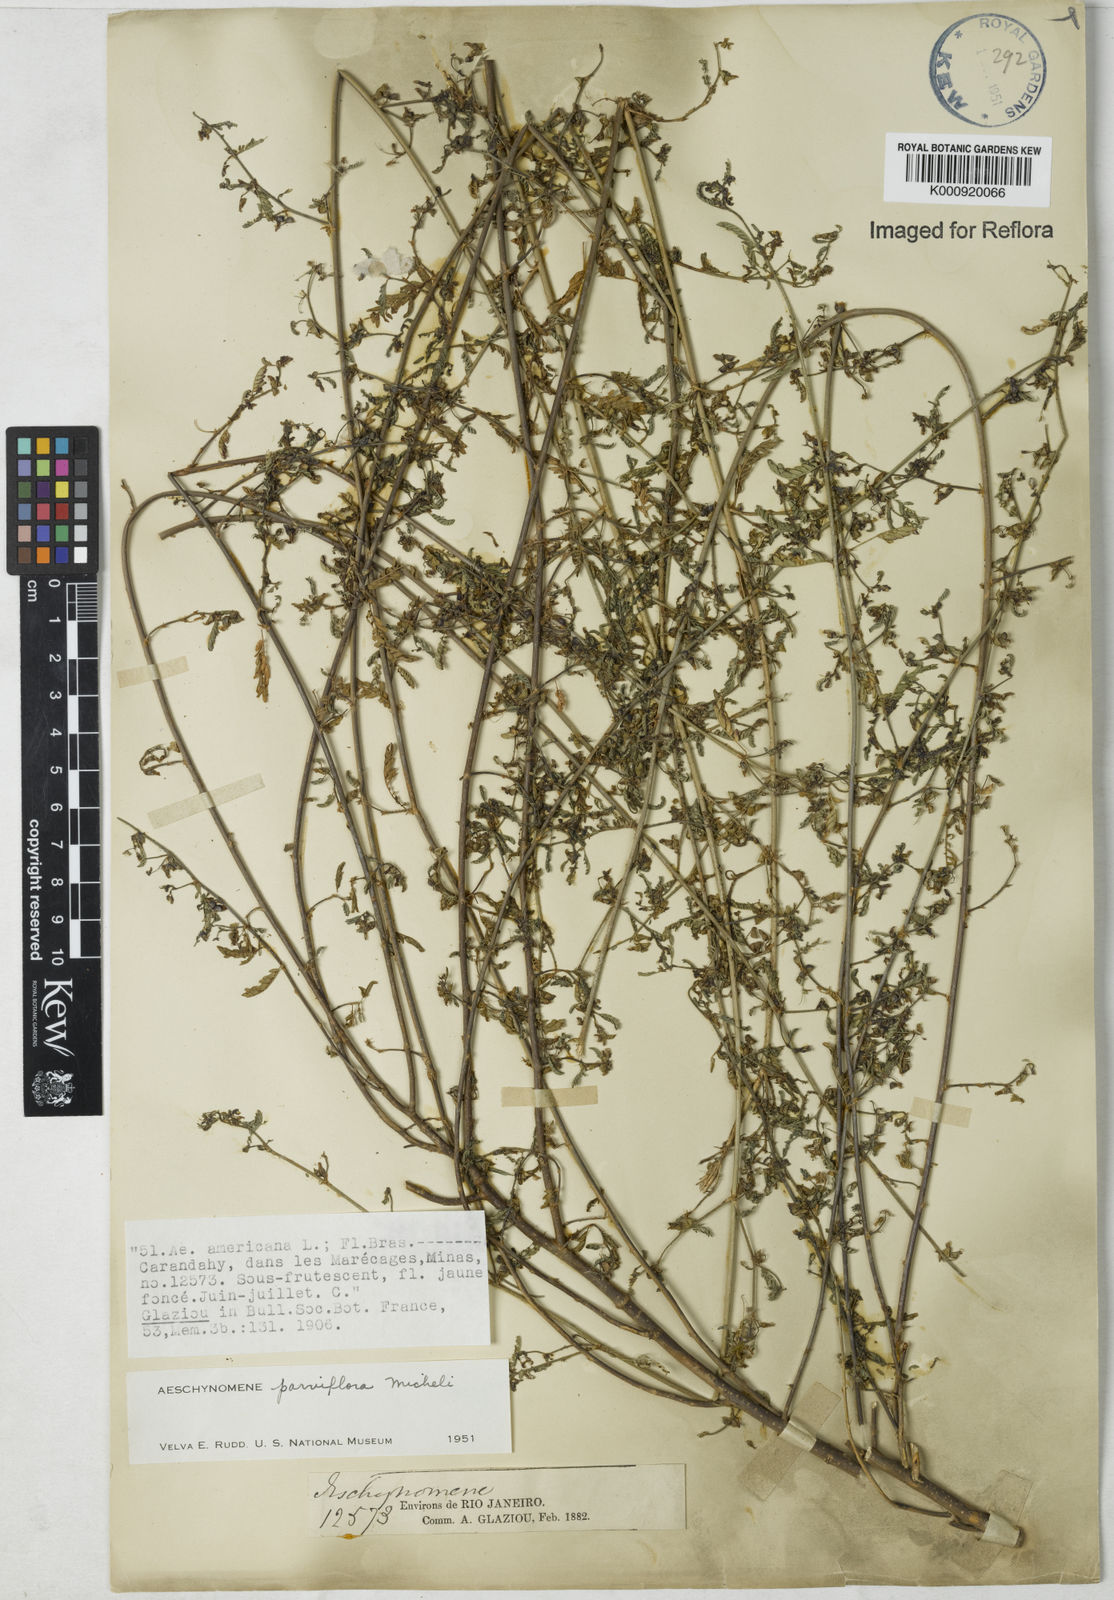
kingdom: Plantae
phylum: Tracheophyta
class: Magnoliopsida
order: Fabales
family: Fabaceae
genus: Aeschynomene
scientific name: Aeschynomene parviflora
